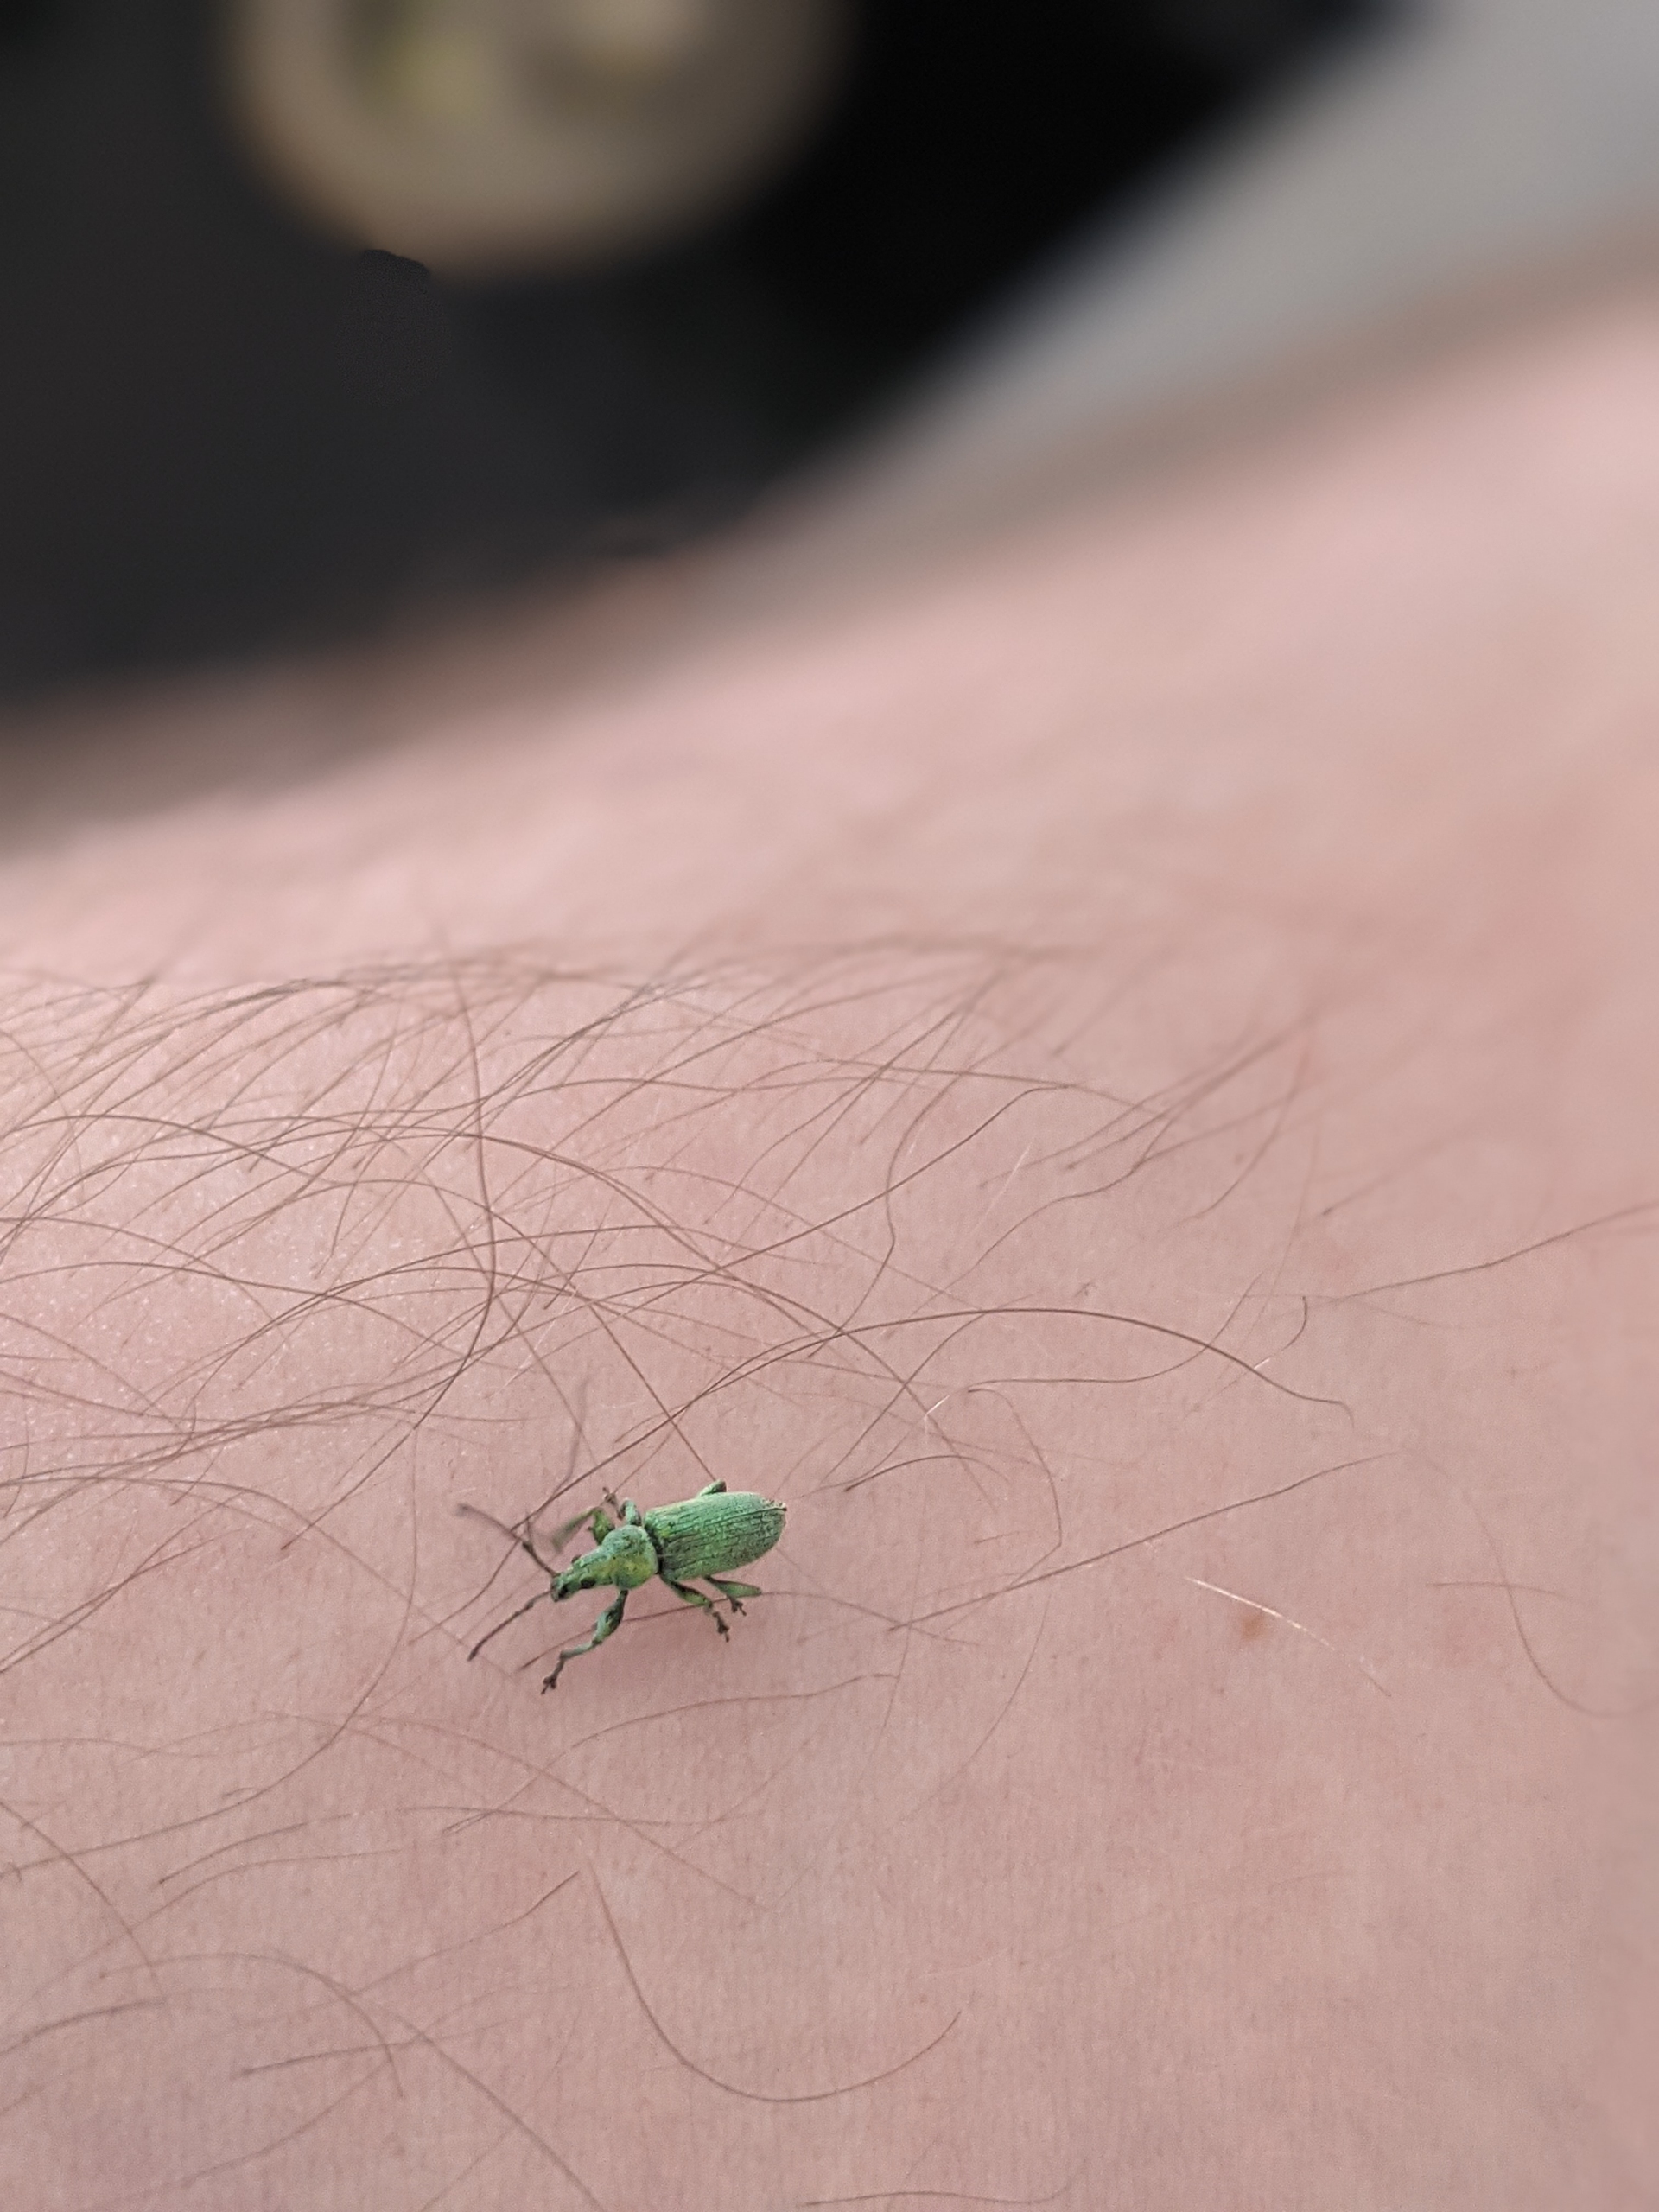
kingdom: Animalia
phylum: Arthropoda
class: Insecta
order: Coleoptera
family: Curculionidae
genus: Phyllobius
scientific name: Phyllobius maculicornis
